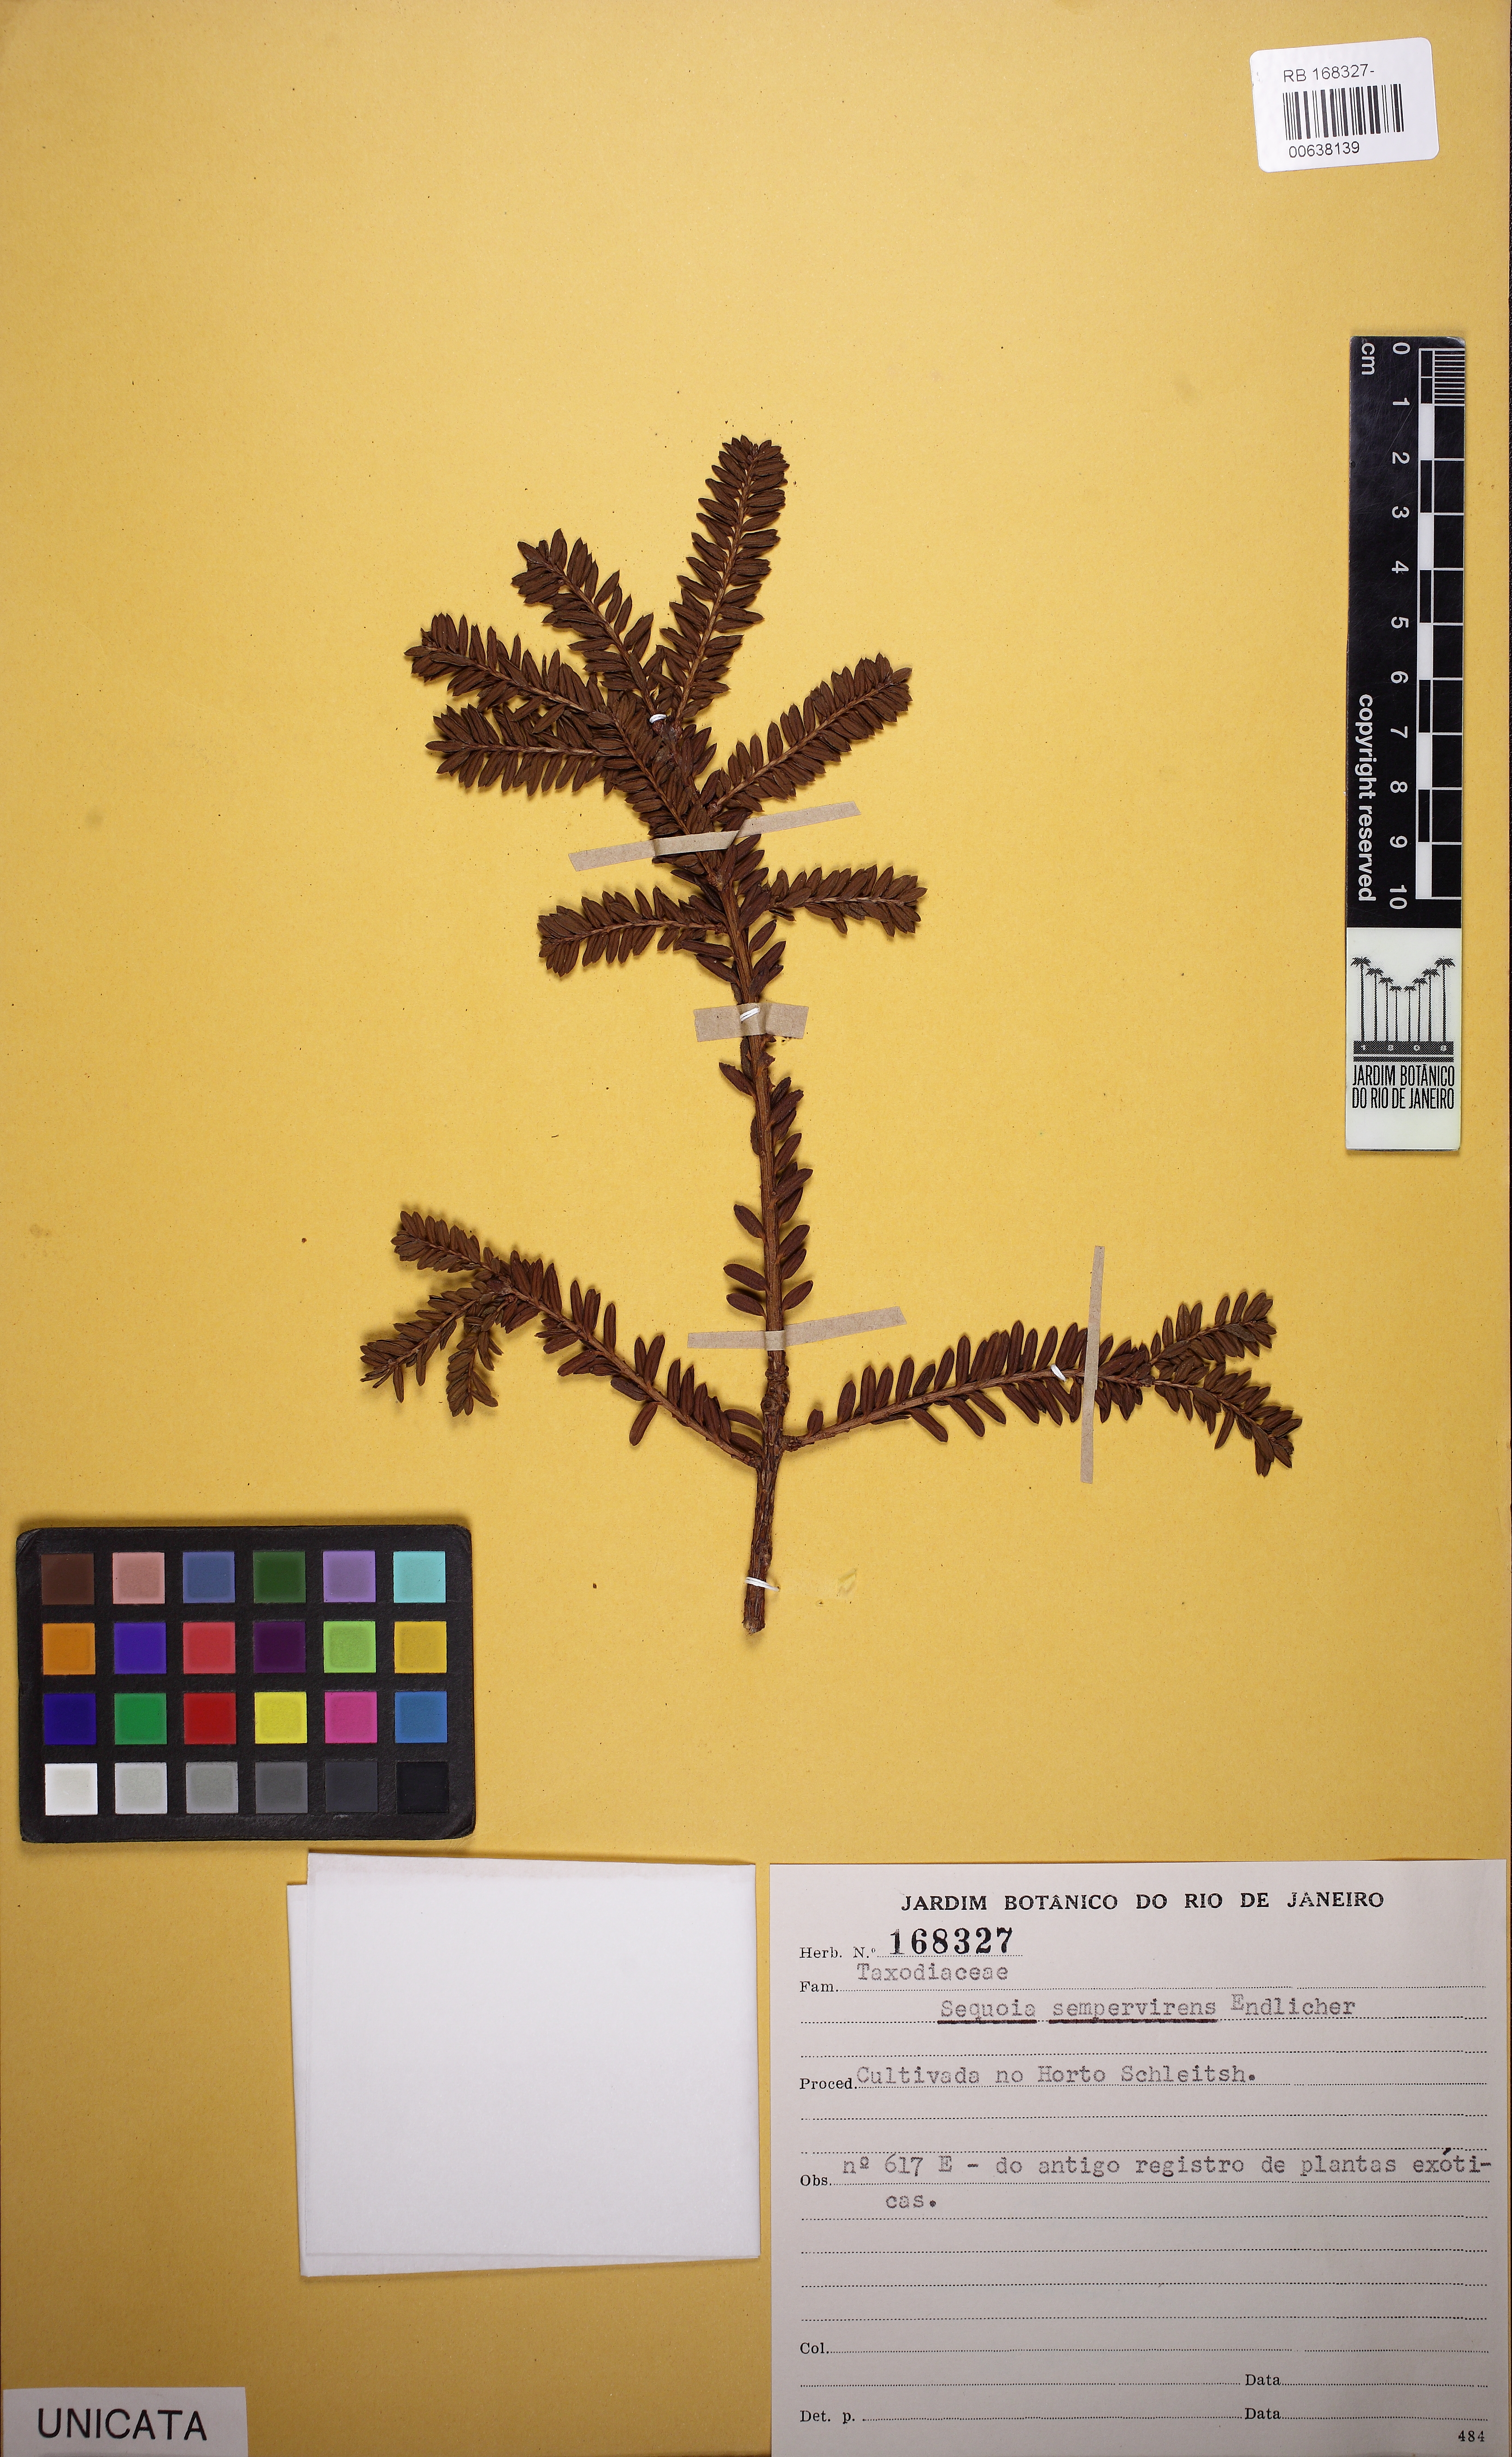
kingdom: Plantae
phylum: Tracheophyta
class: Pinopsida
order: Pinales
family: Cupressaceae
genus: Sequoia
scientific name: Sequoia sempervirens
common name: Coast redwood
